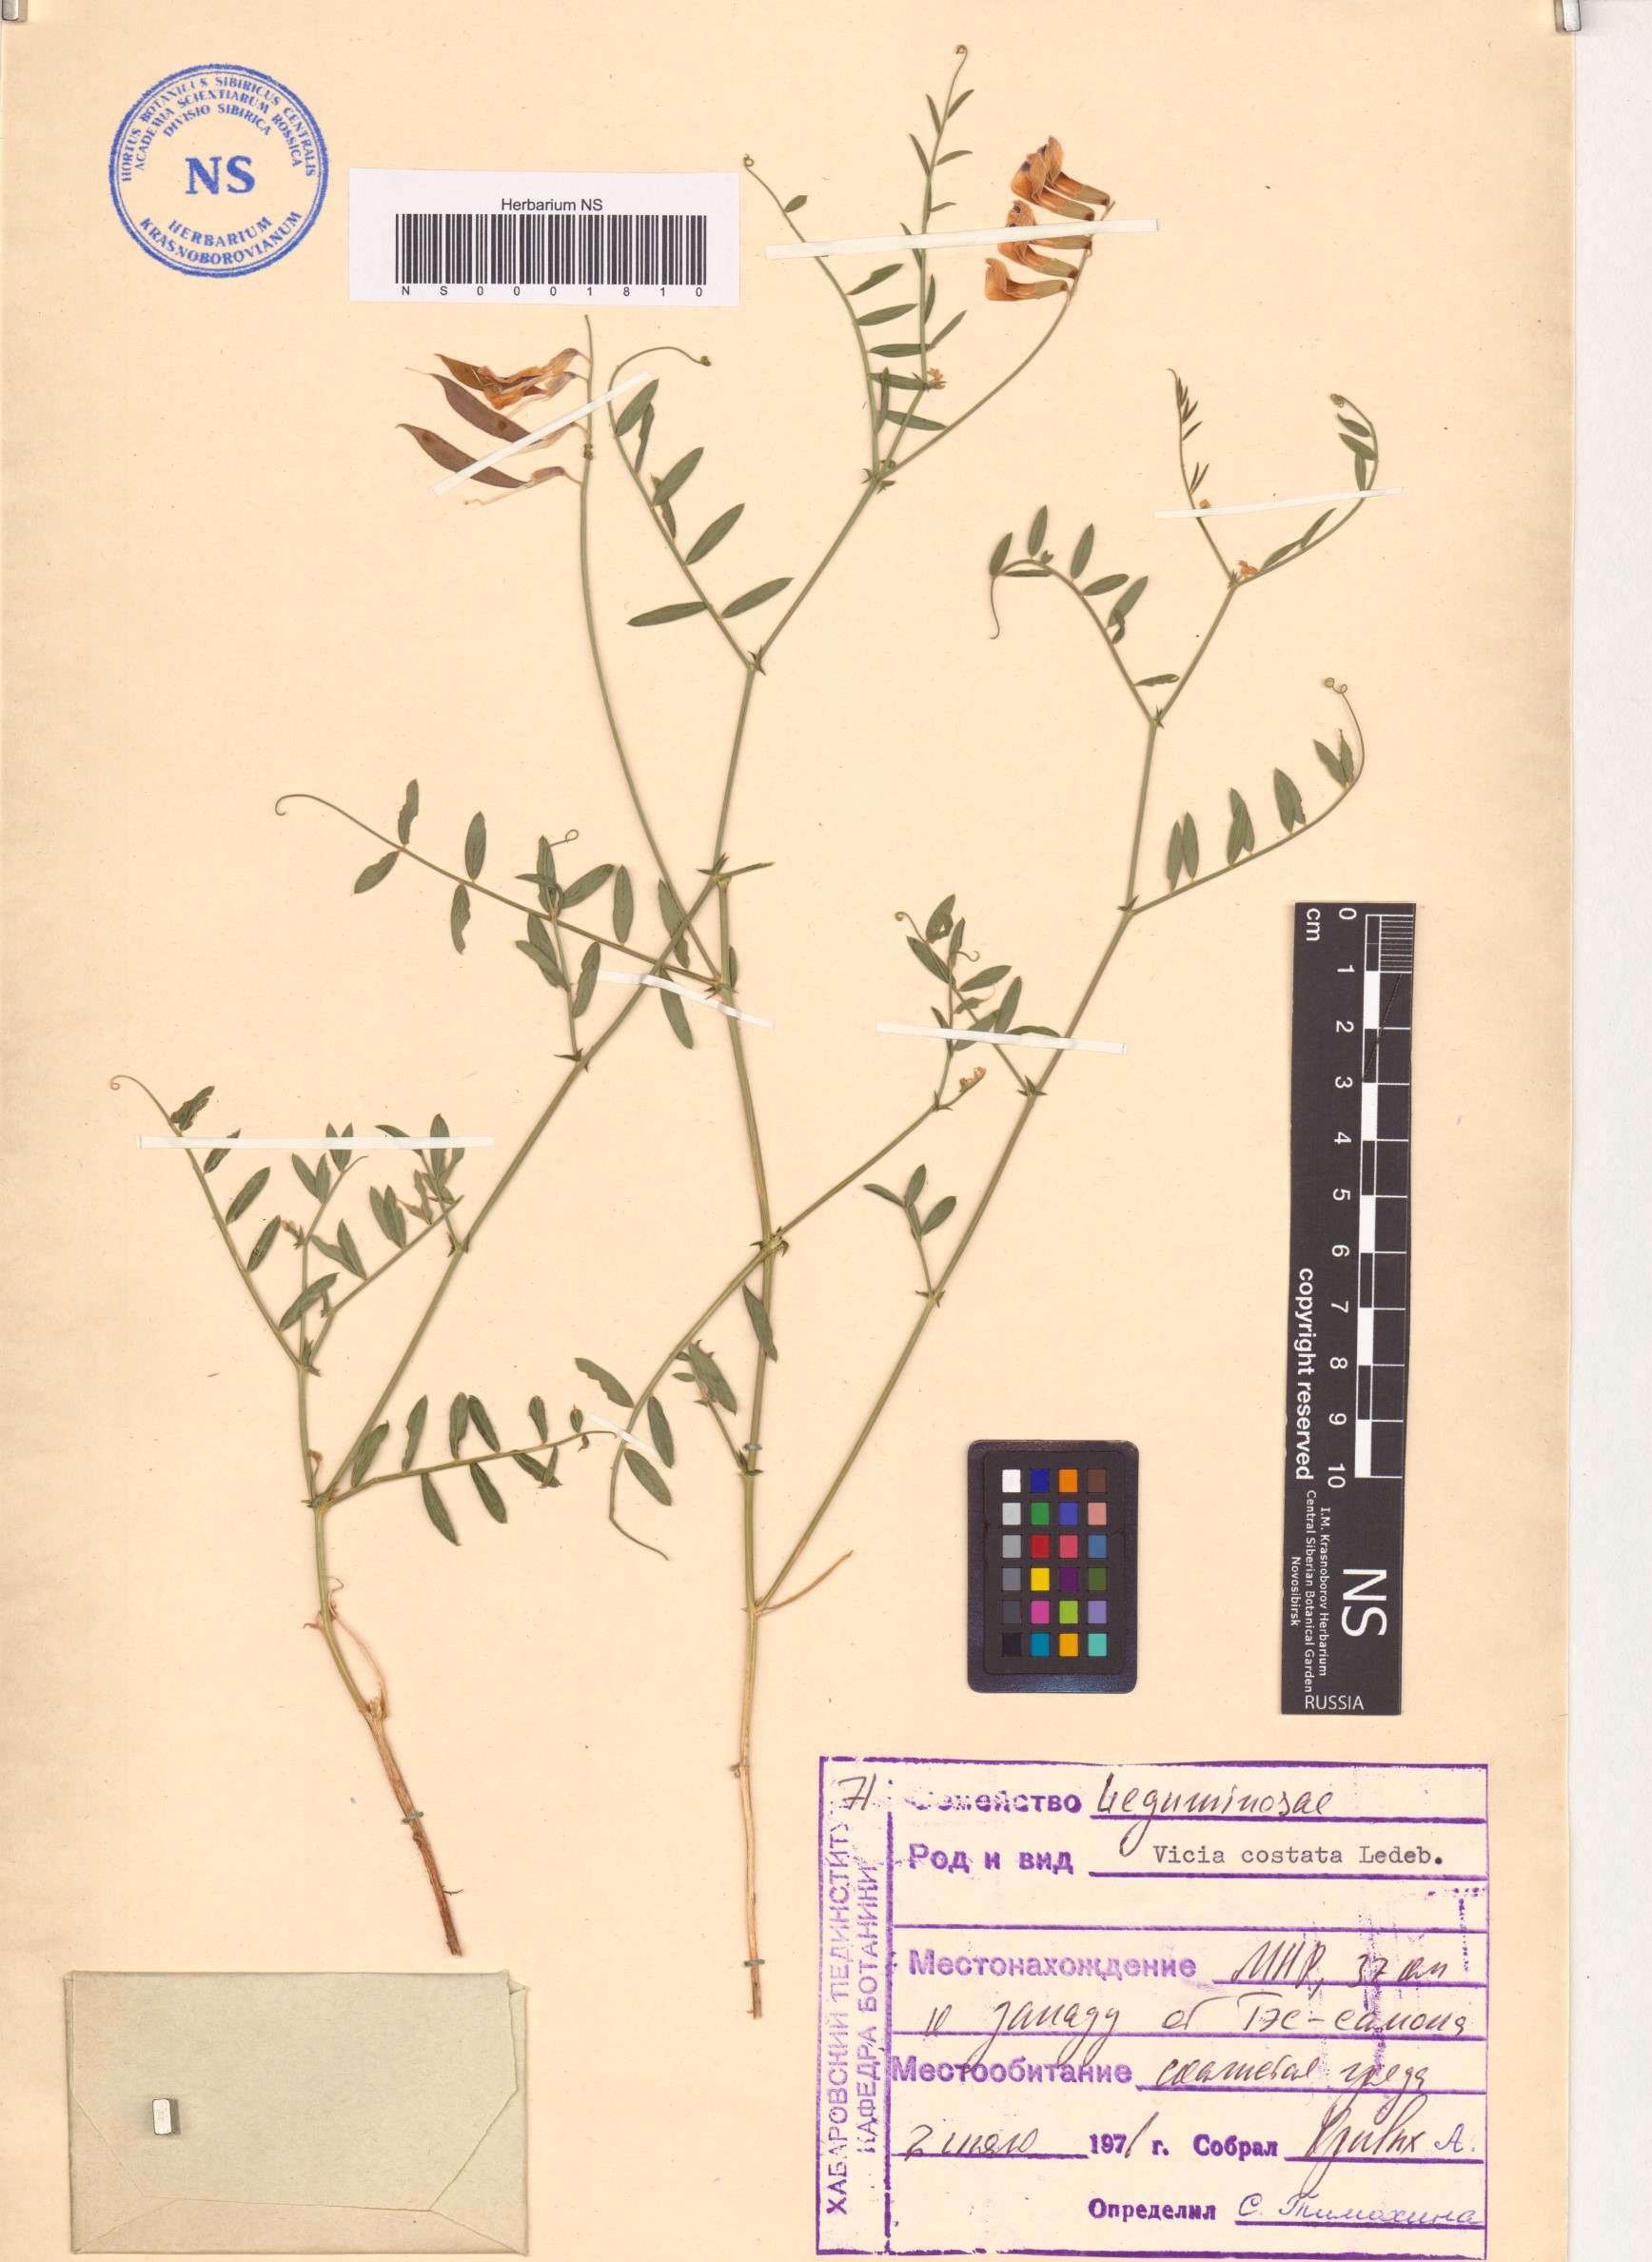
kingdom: Plantae
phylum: Tracheophyta
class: Magnoliopsida
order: Fabales
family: Fabaceae
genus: Vicia
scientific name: Vicia costata
